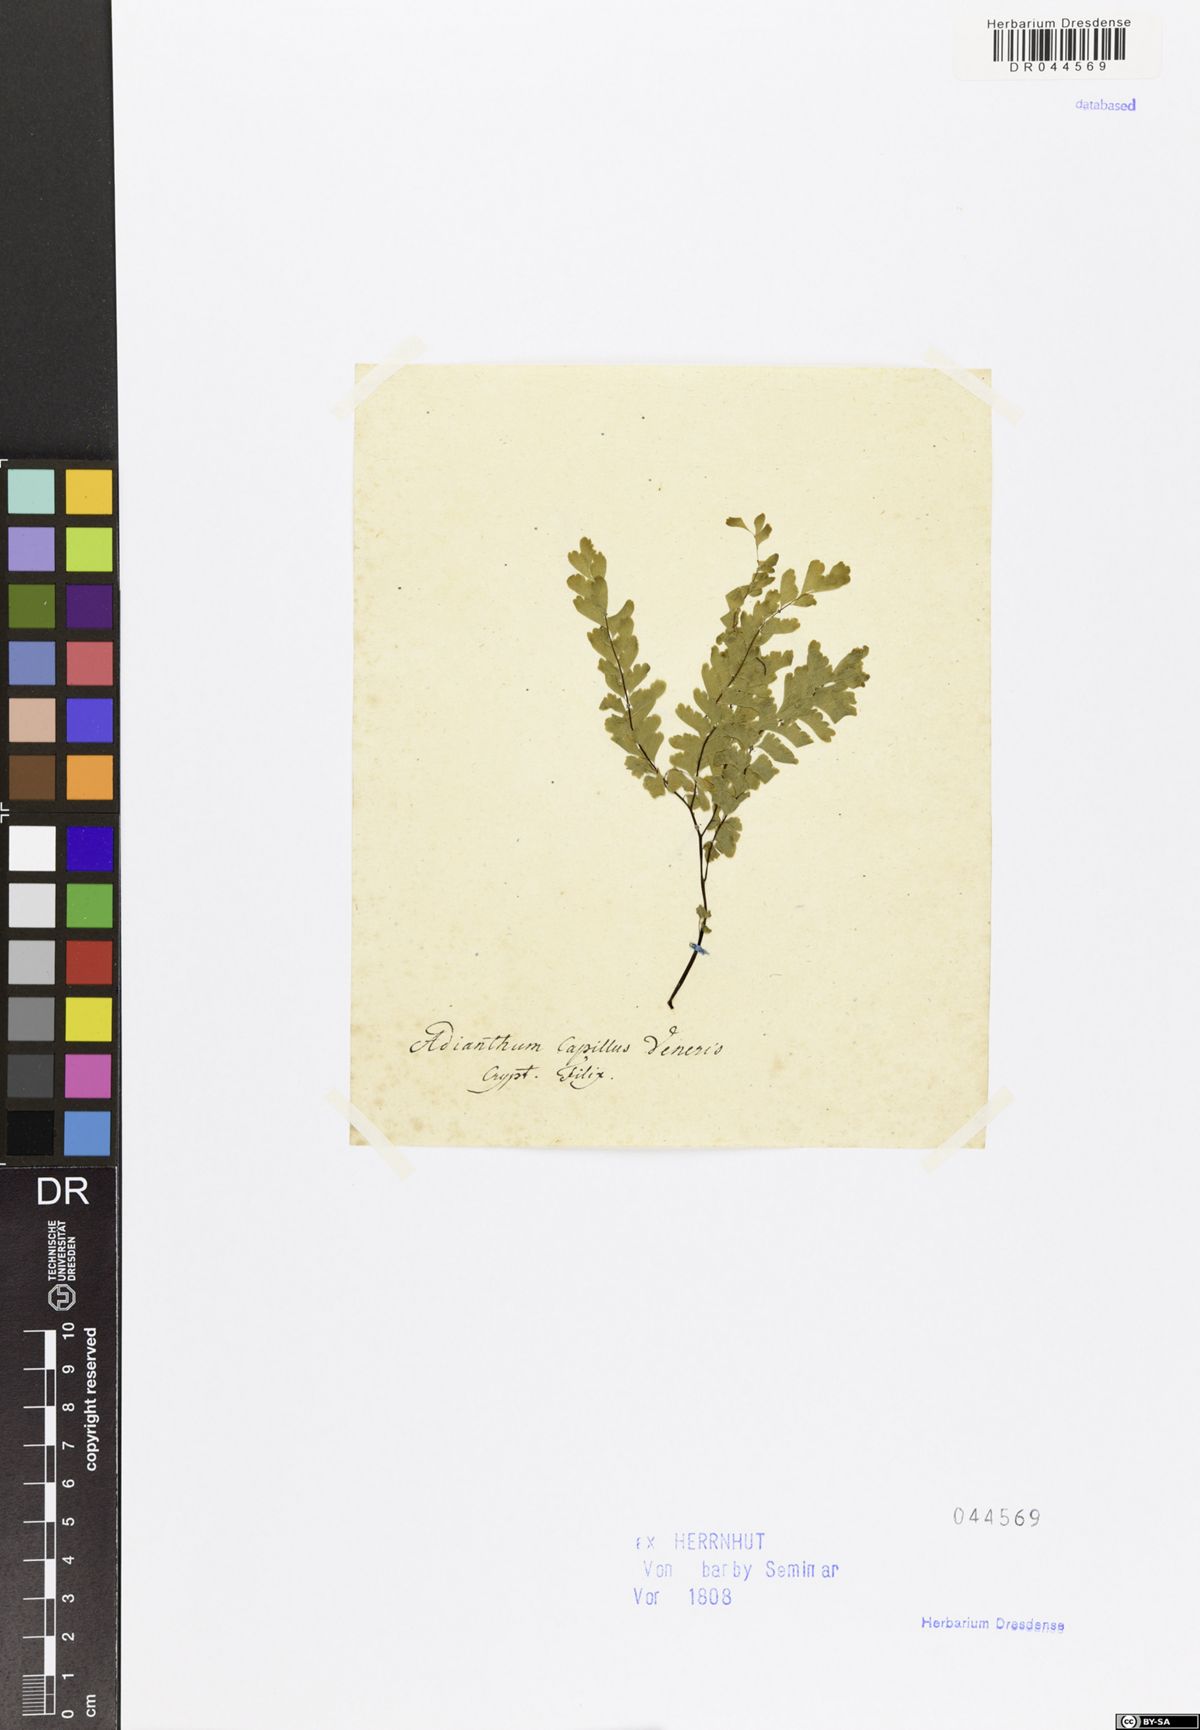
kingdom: Plantae
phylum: Tracheophyta
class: Polypodiopsida
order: Polypodiales
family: Pteridaceae
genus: Adiantum
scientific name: Adiantum capillus-veneris
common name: Maidenhair fern
